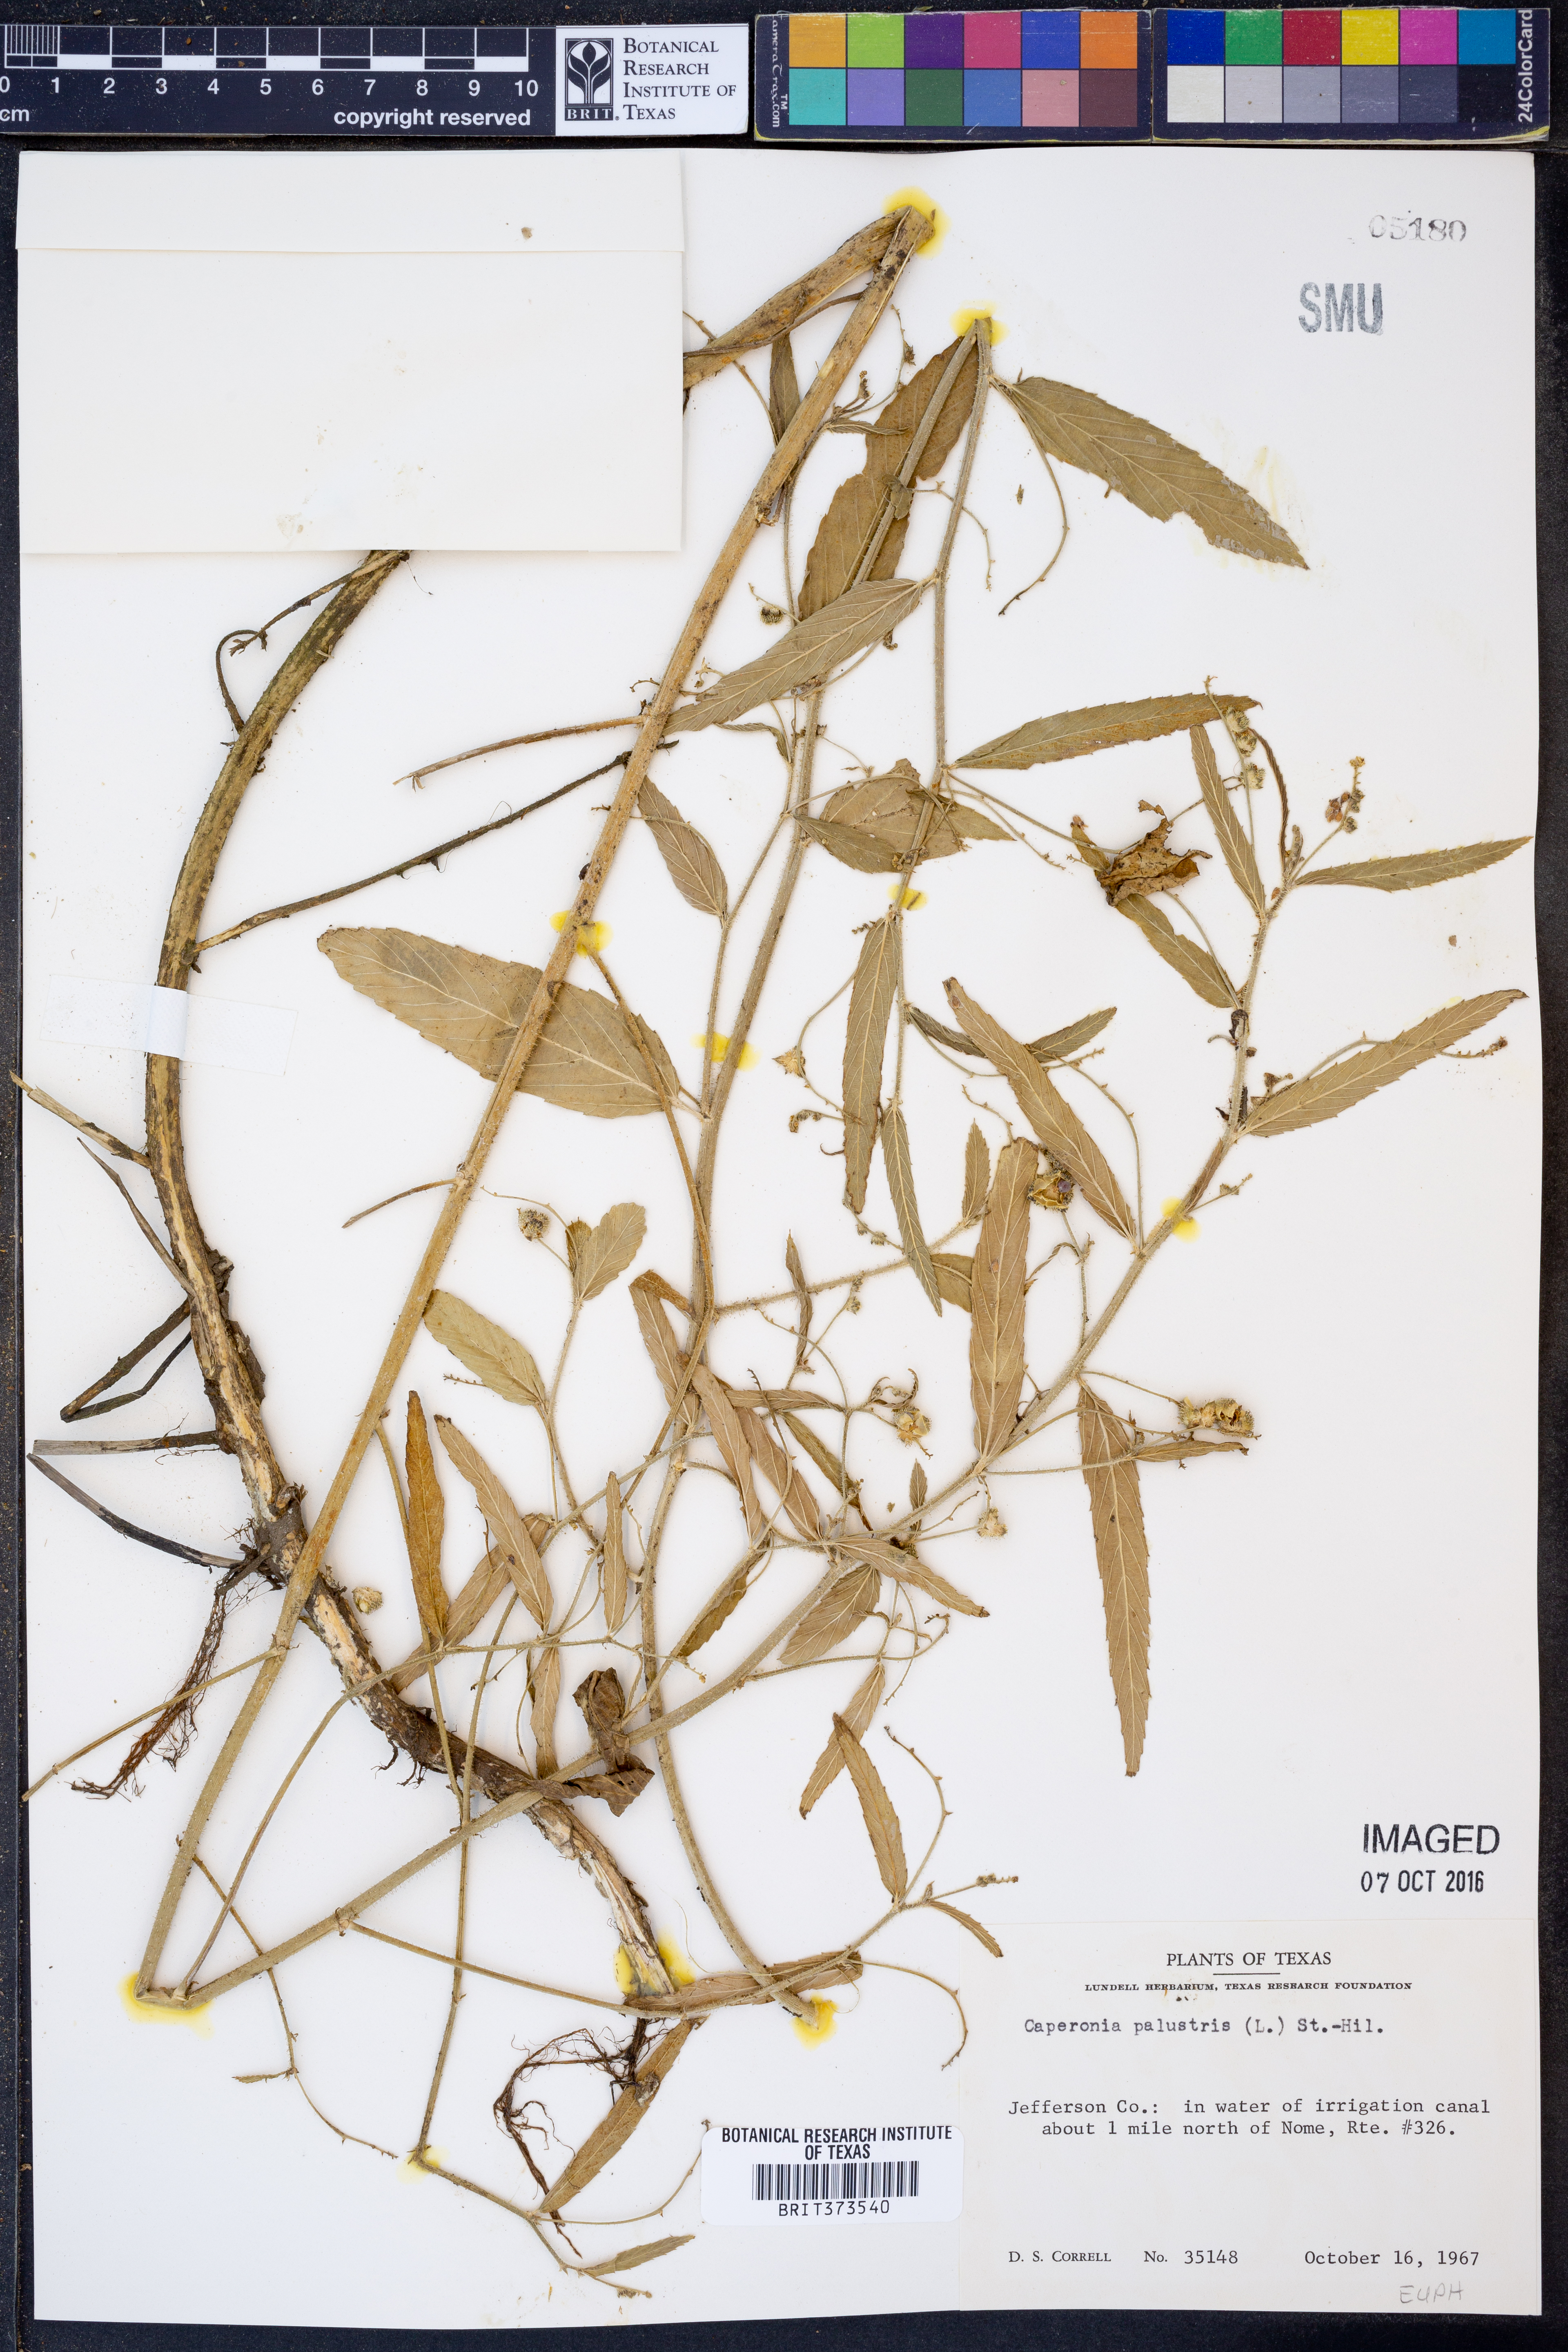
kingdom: Plantae
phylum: Tracheophyta
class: Magnoliopsida
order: Malpighiales
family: Euphorbiaceae
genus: Caperonia
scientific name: Caperonia palustris
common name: Sacatrapo
